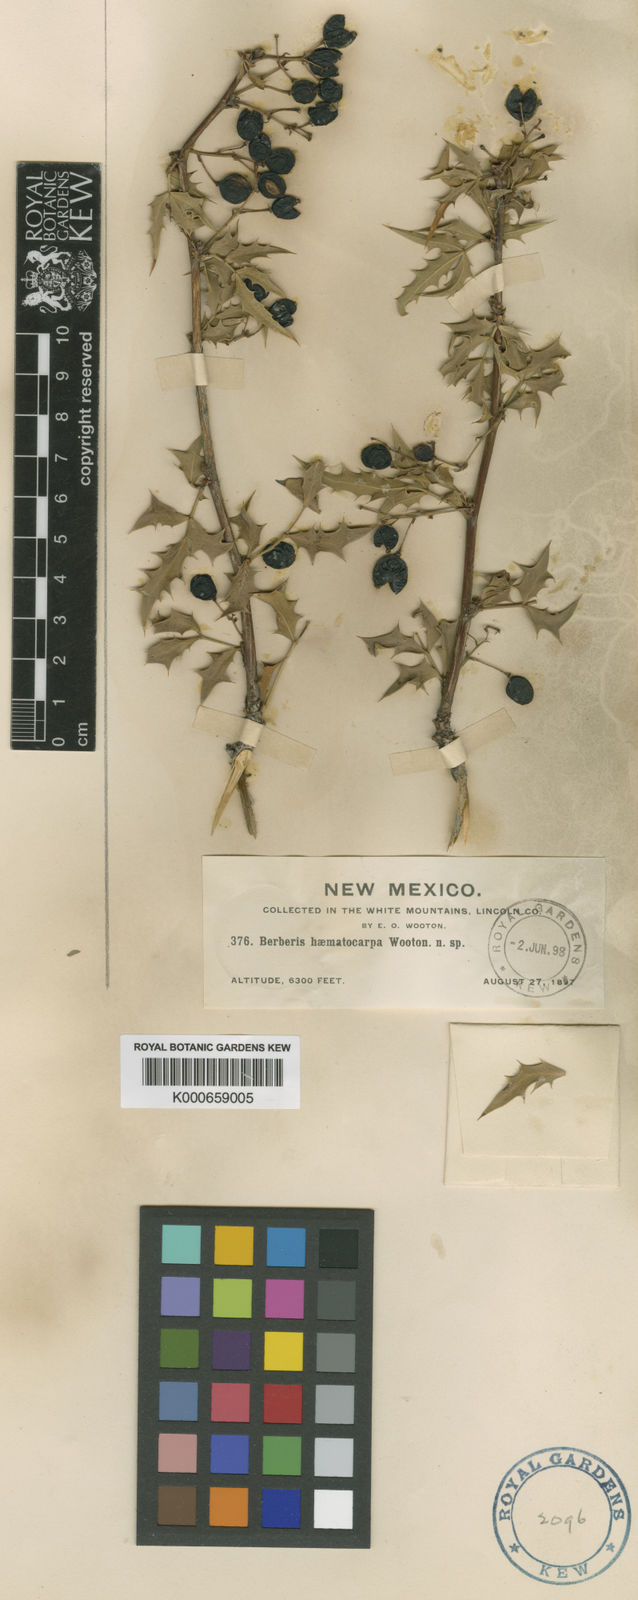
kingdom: Plantae
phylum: Tracheophyta
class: Magnoliopsida
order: Ranunculales
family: Berberidaceae
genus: Alloberberis
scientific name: Alloberberis haematocarpa
